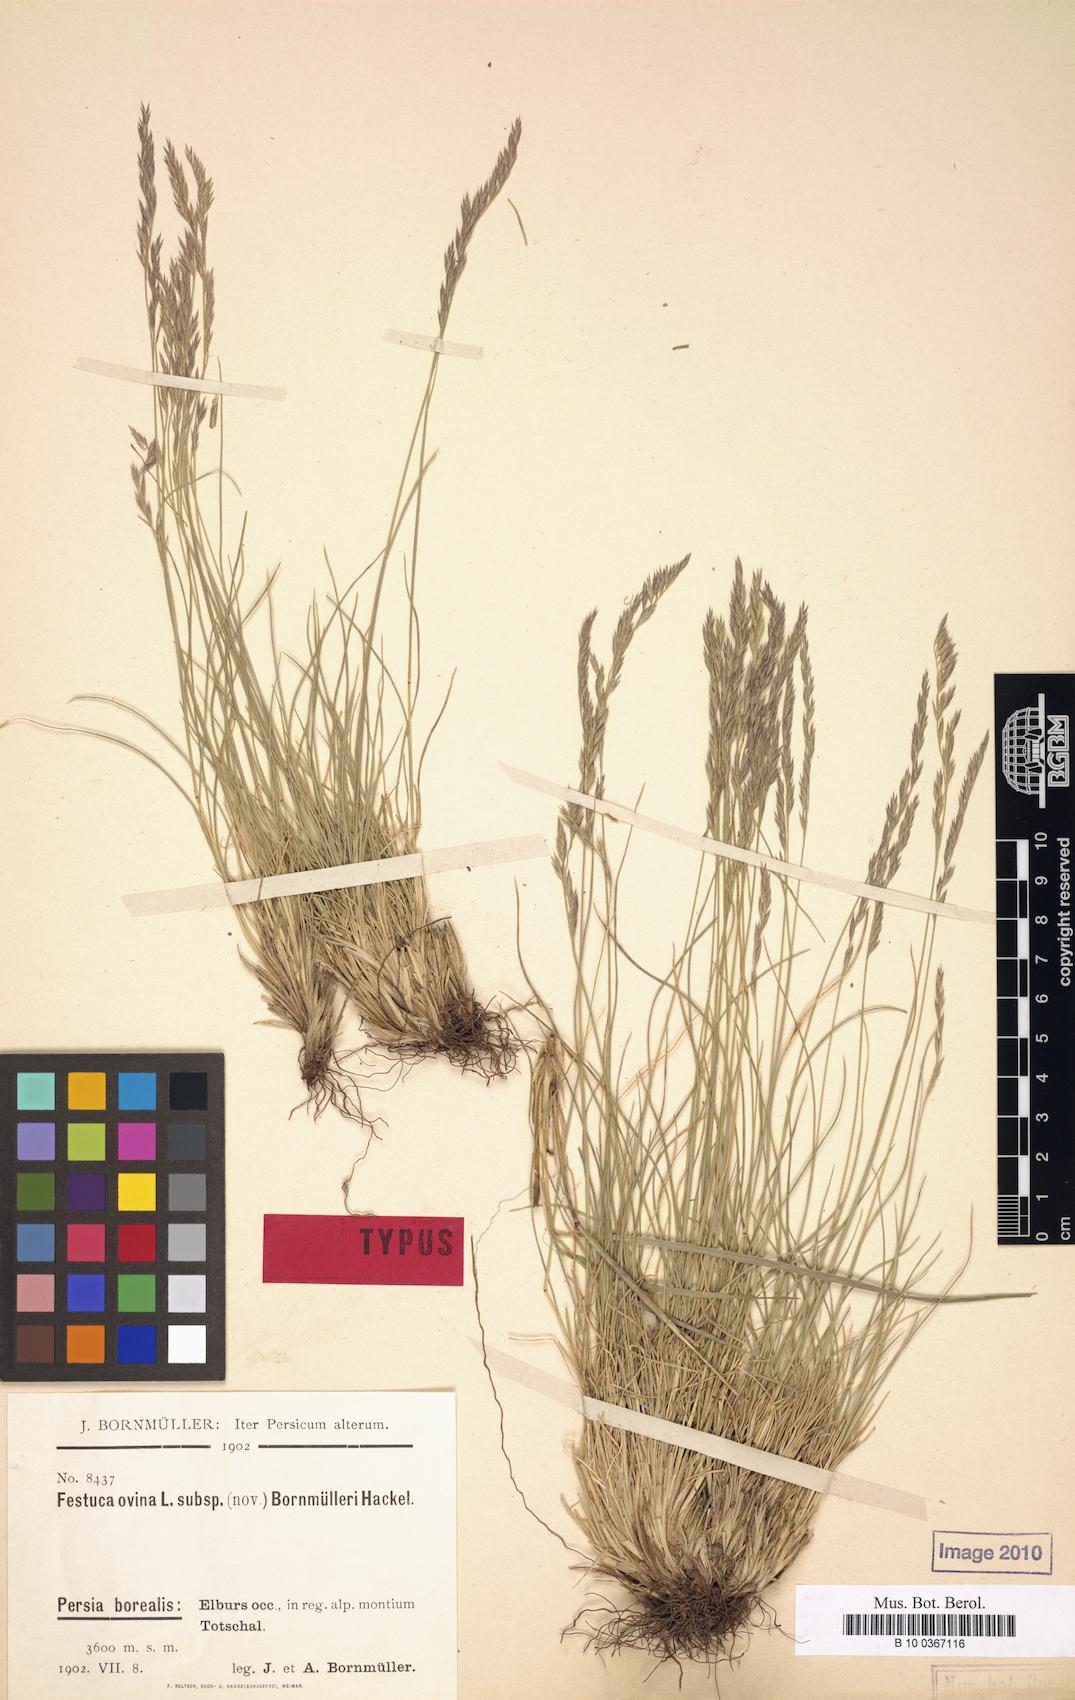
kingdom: Plantae
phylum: Tracheophyta
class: Liliopsida
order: Poales
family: Poaceae
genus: Festuca
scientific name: Festuca alaica
